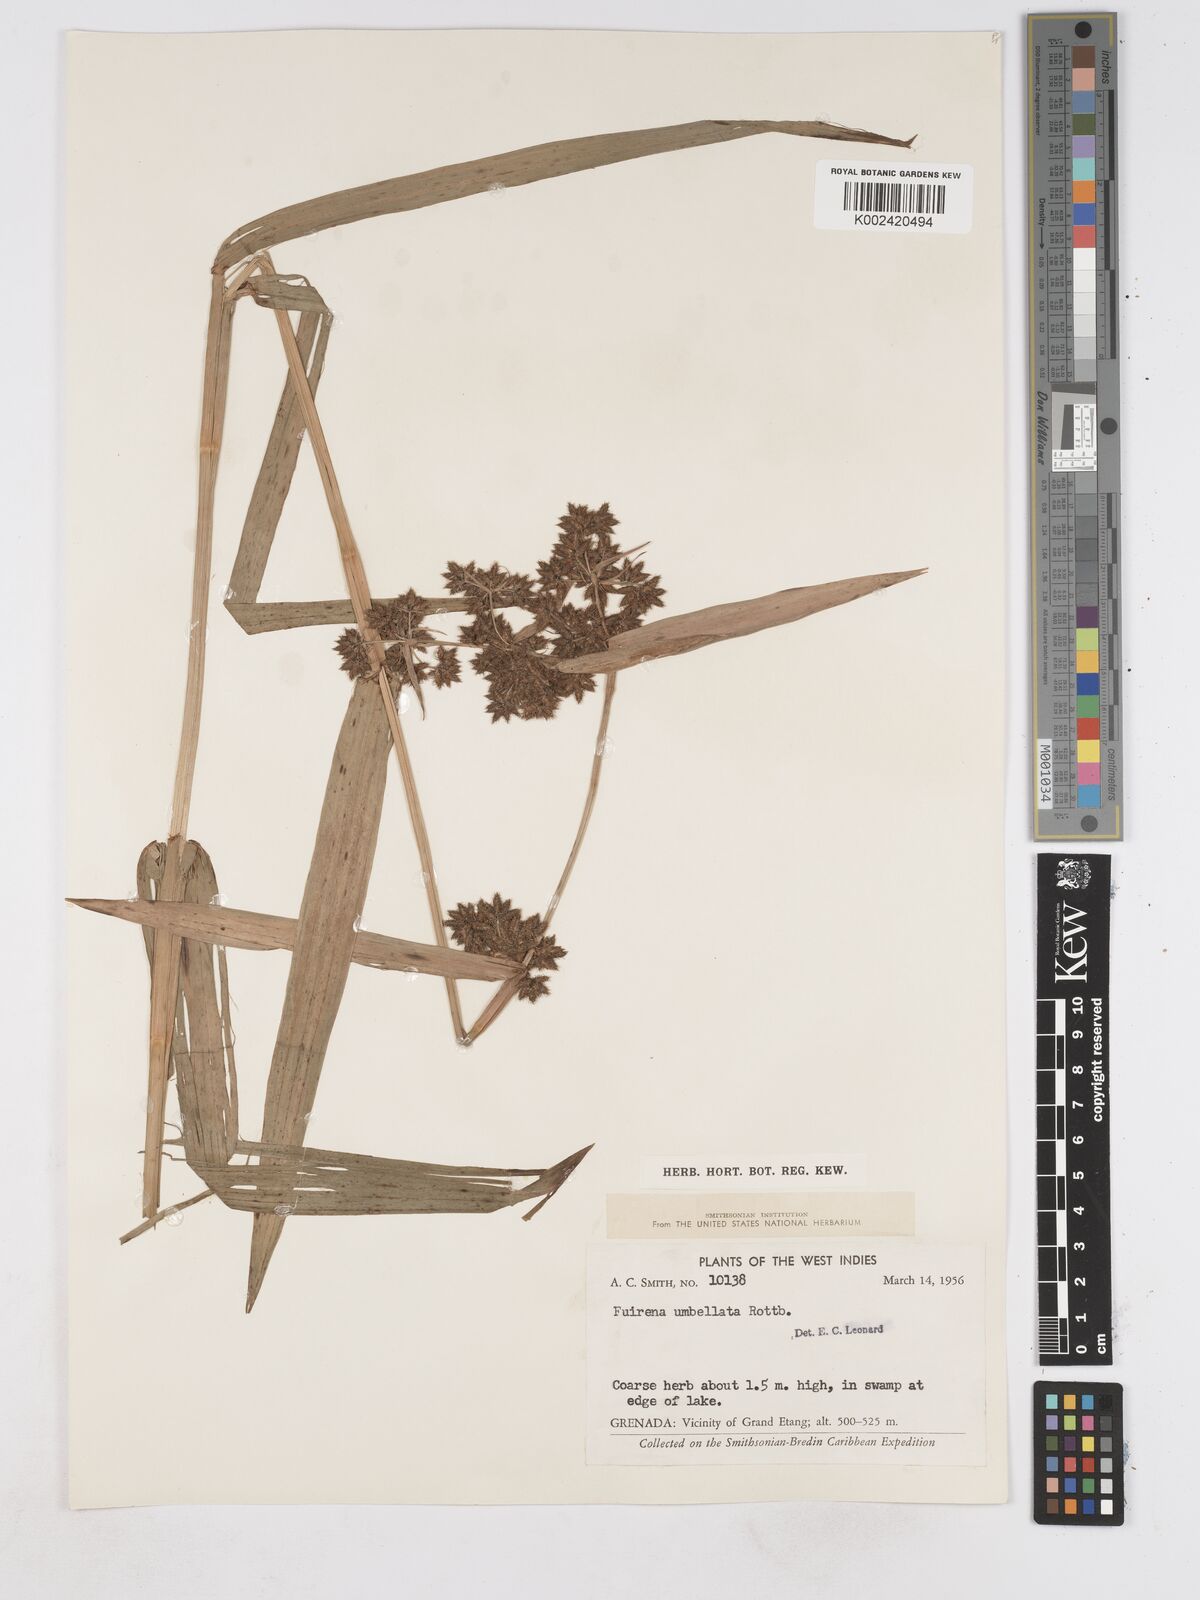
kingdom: Plantae
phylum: Tracheophyta
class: Liliopsida
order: Poales
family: Cyperaceae
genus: Fuirena
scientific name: Fuirena umbellata
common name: Yefen
